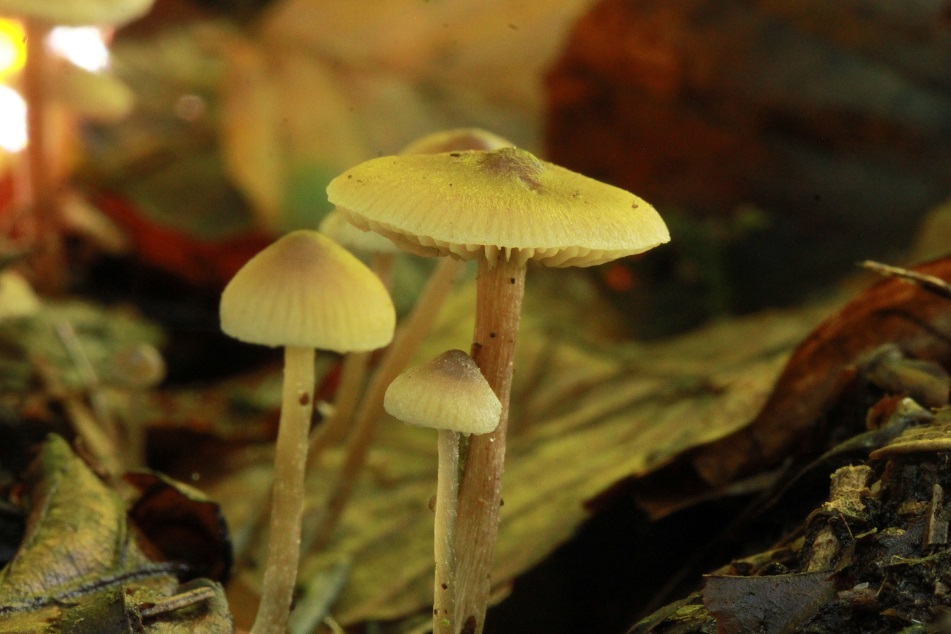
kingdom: Fungi
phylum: Basidiomycota
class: Agaricomycetes
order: Agaricales
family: Lyophyllaceae
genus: Sagaranella
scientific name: Sagaranella tylicolor
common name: kvælstof-gråblad
